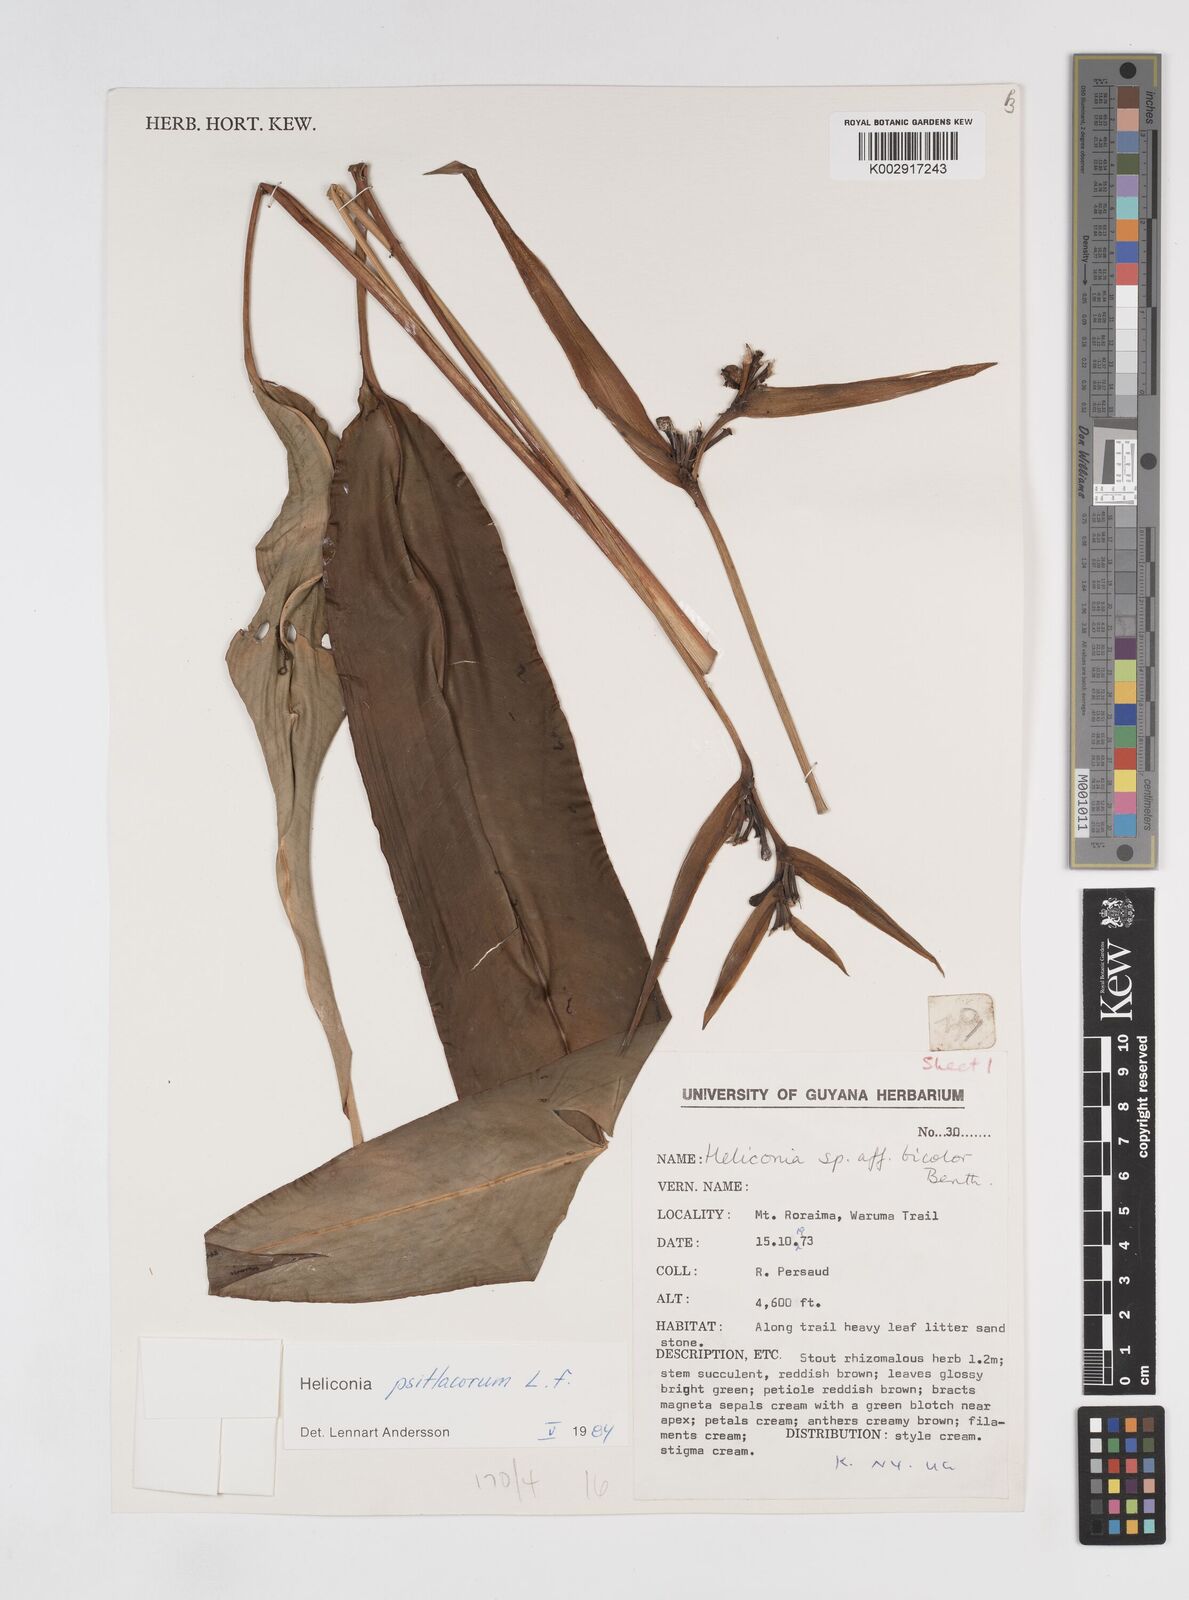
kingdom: Plantae
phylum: Tracheophyta
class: Liliopsida
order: Zingiberales
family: Heliconiaceae
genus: Heliconia
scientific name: Heliconia psittacorum
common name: Parrot's-flower
